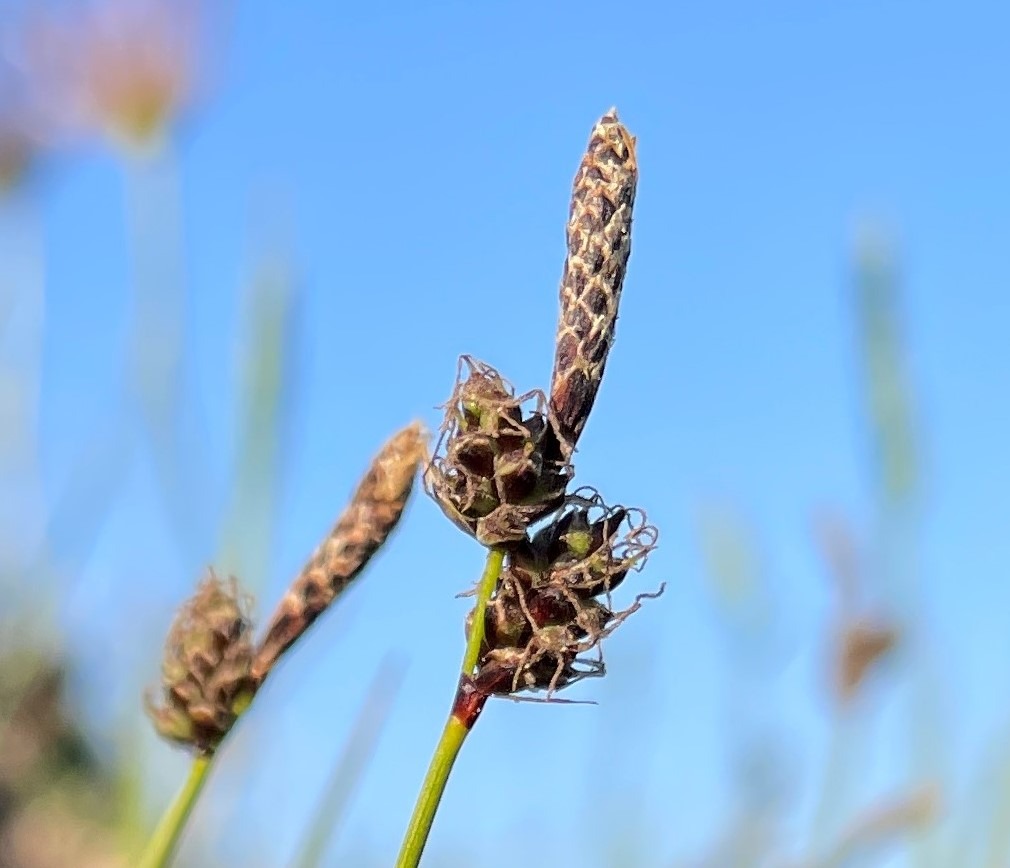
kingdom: Plantae
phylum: Tracheophyta
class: Liliopsida
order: Poales
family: Cyperaceae
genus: Carex
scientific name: Carex ericetorum
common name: Lyng-star
